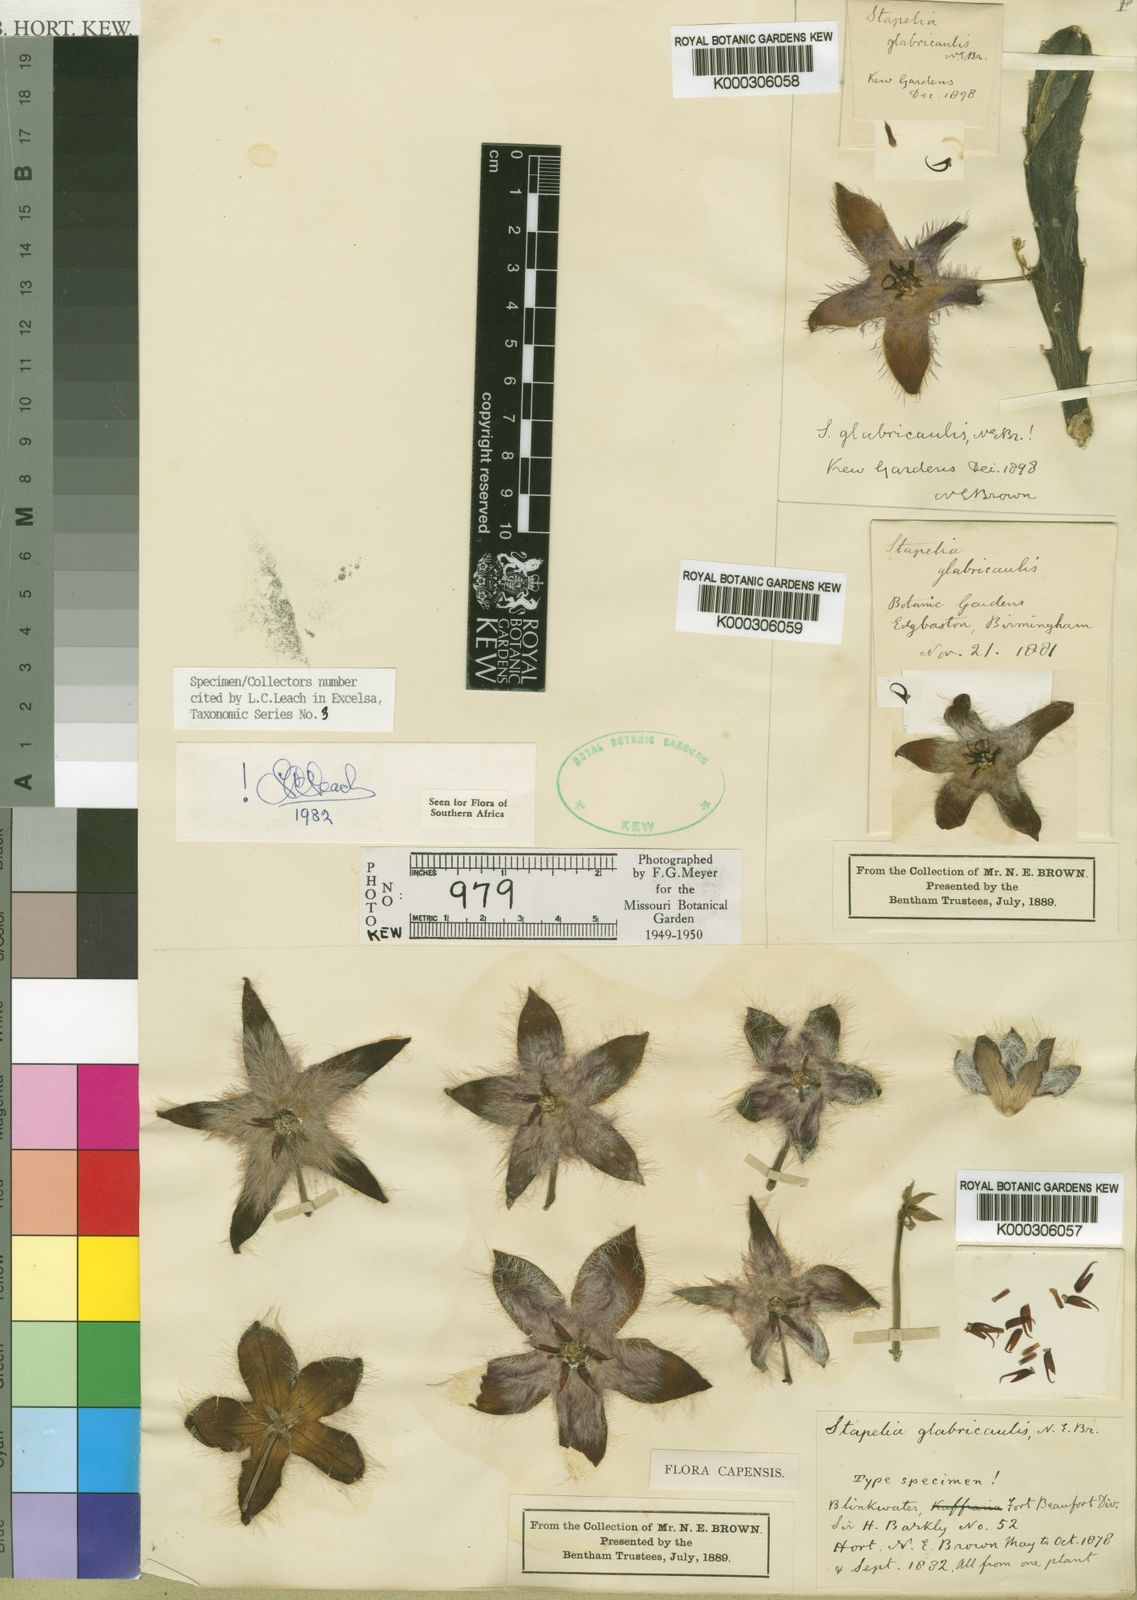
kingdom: Plantae
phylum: Tracheophyta
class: Magnoliopsida
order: Gentianales
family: Apocynaceae
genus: Ceropegia
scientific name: Ceropegia pulvinata
